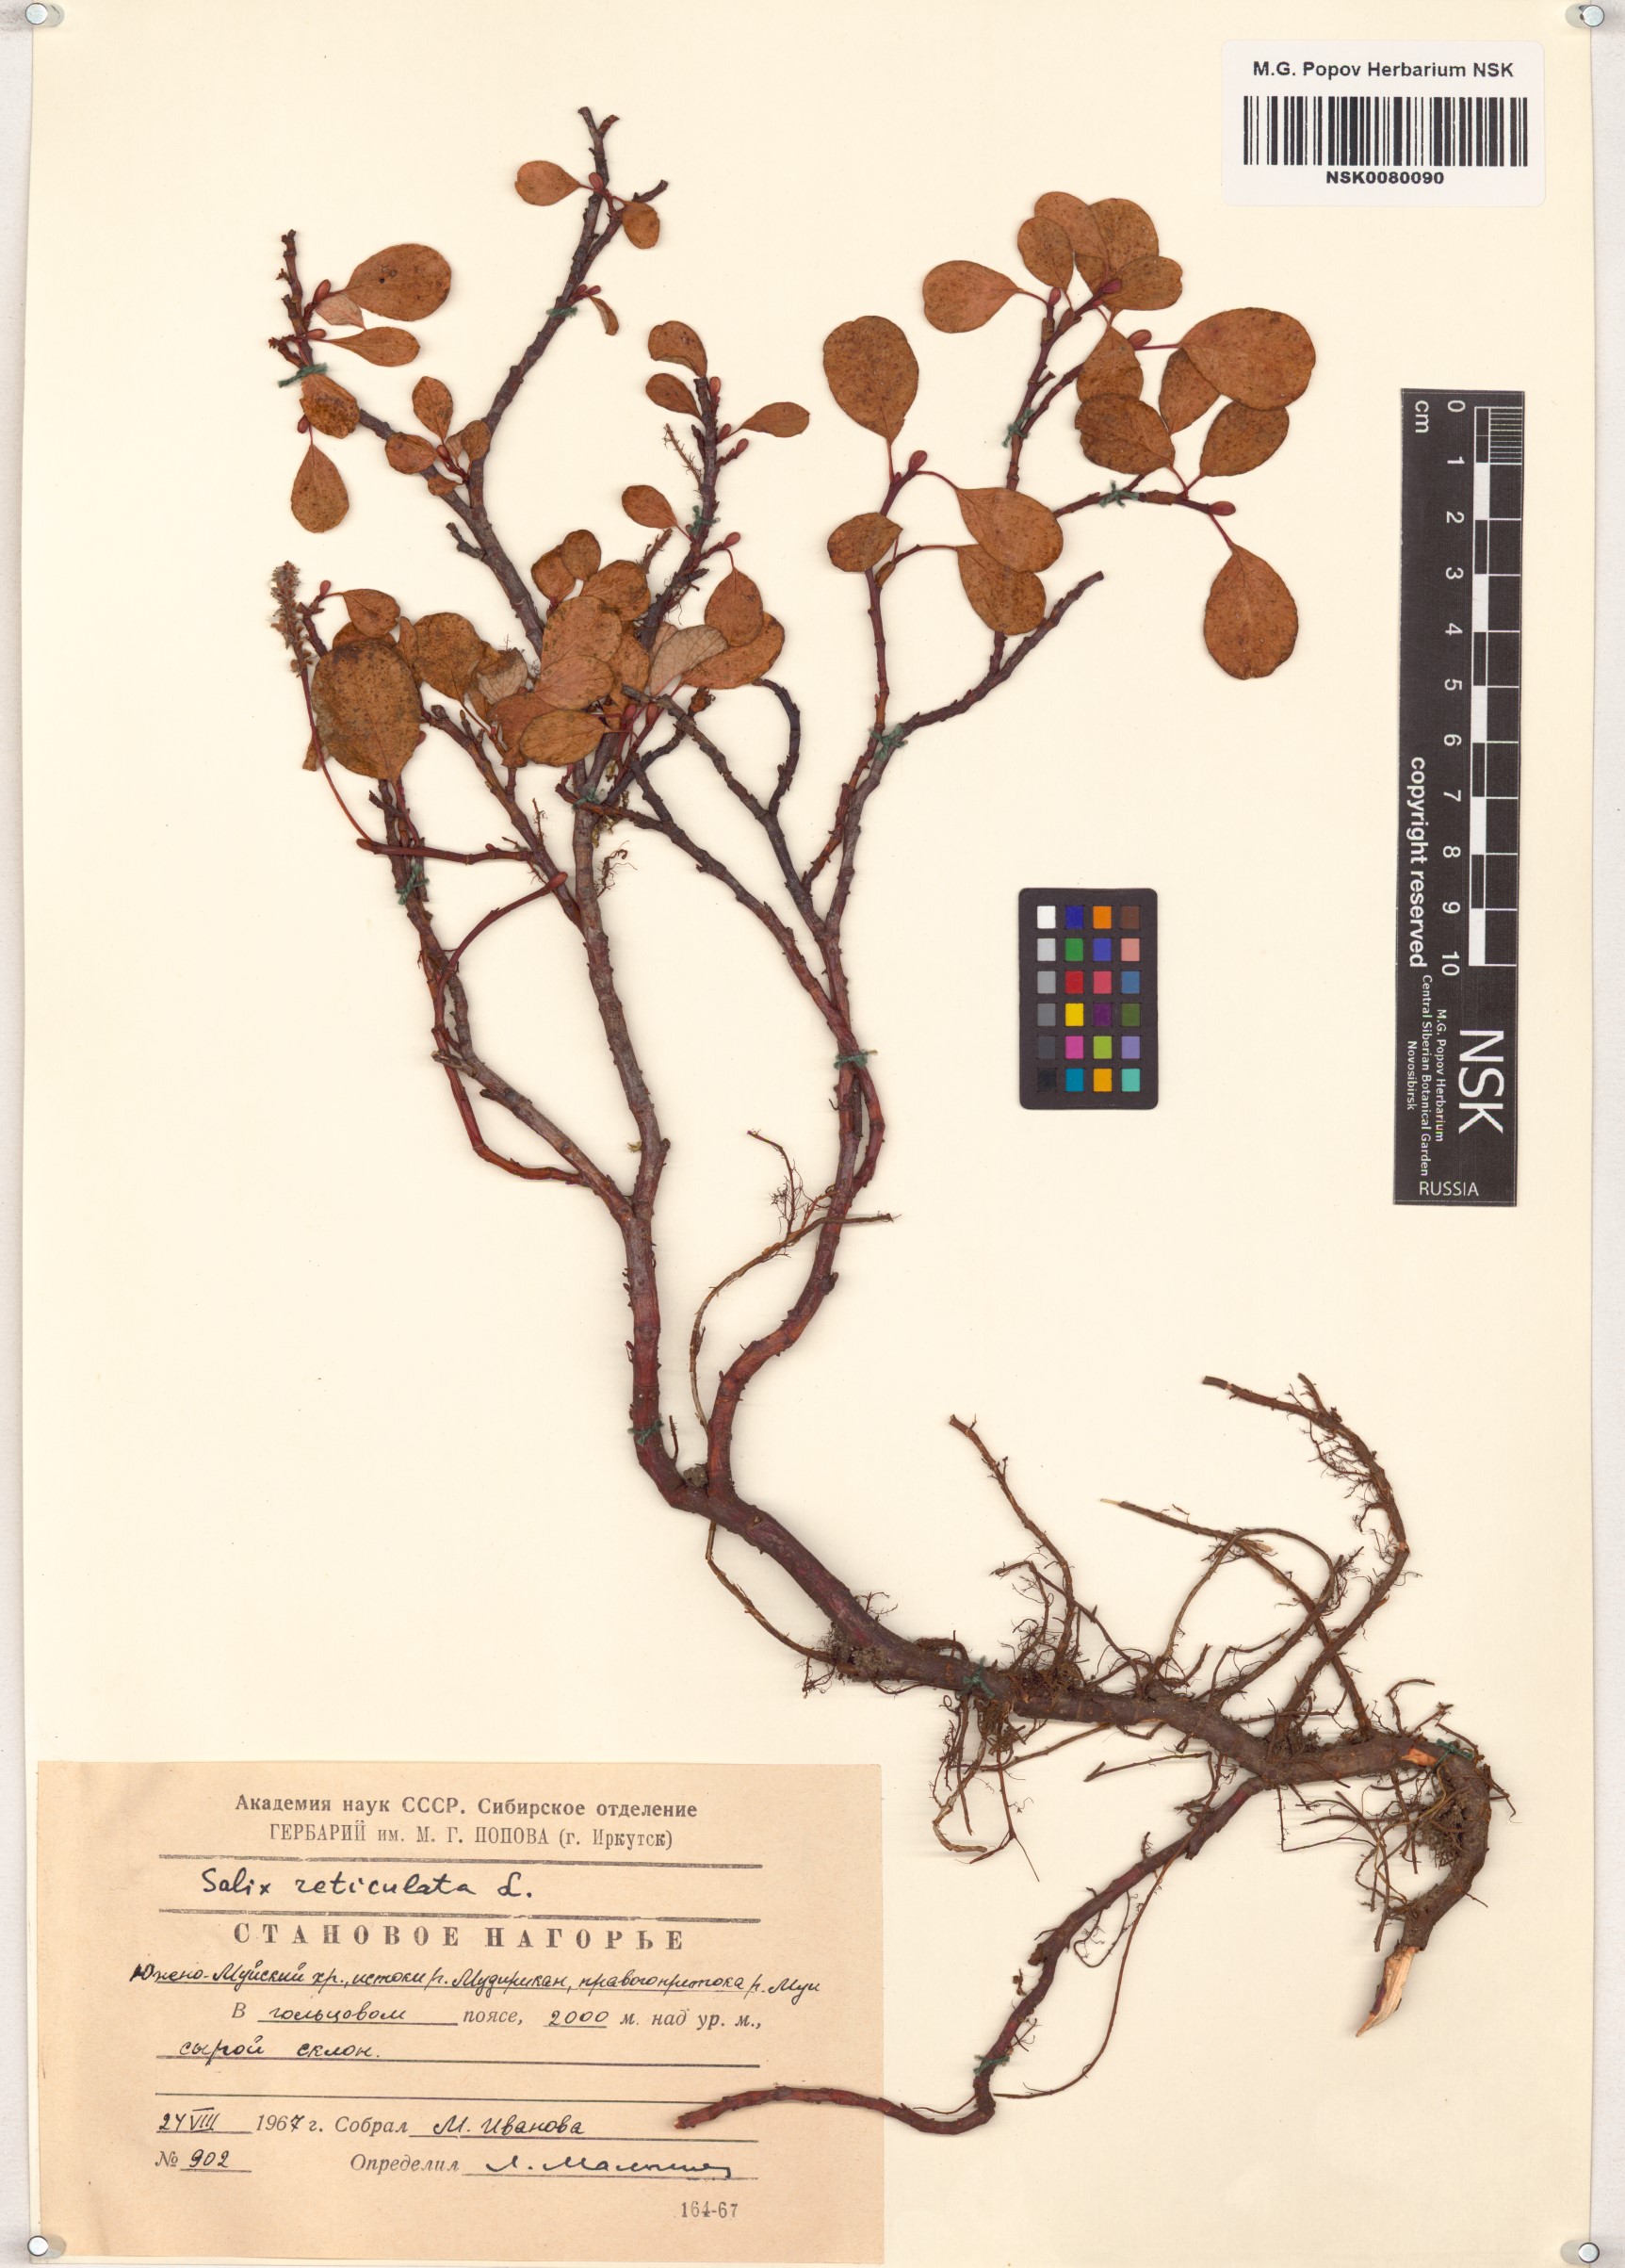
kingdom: Plantae
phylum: Tracheophyta
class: Magnoliopsida
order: Malpighiales
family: Salicaceae
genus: Salix
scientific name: Salix reticulata
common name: Net-leaved willow
